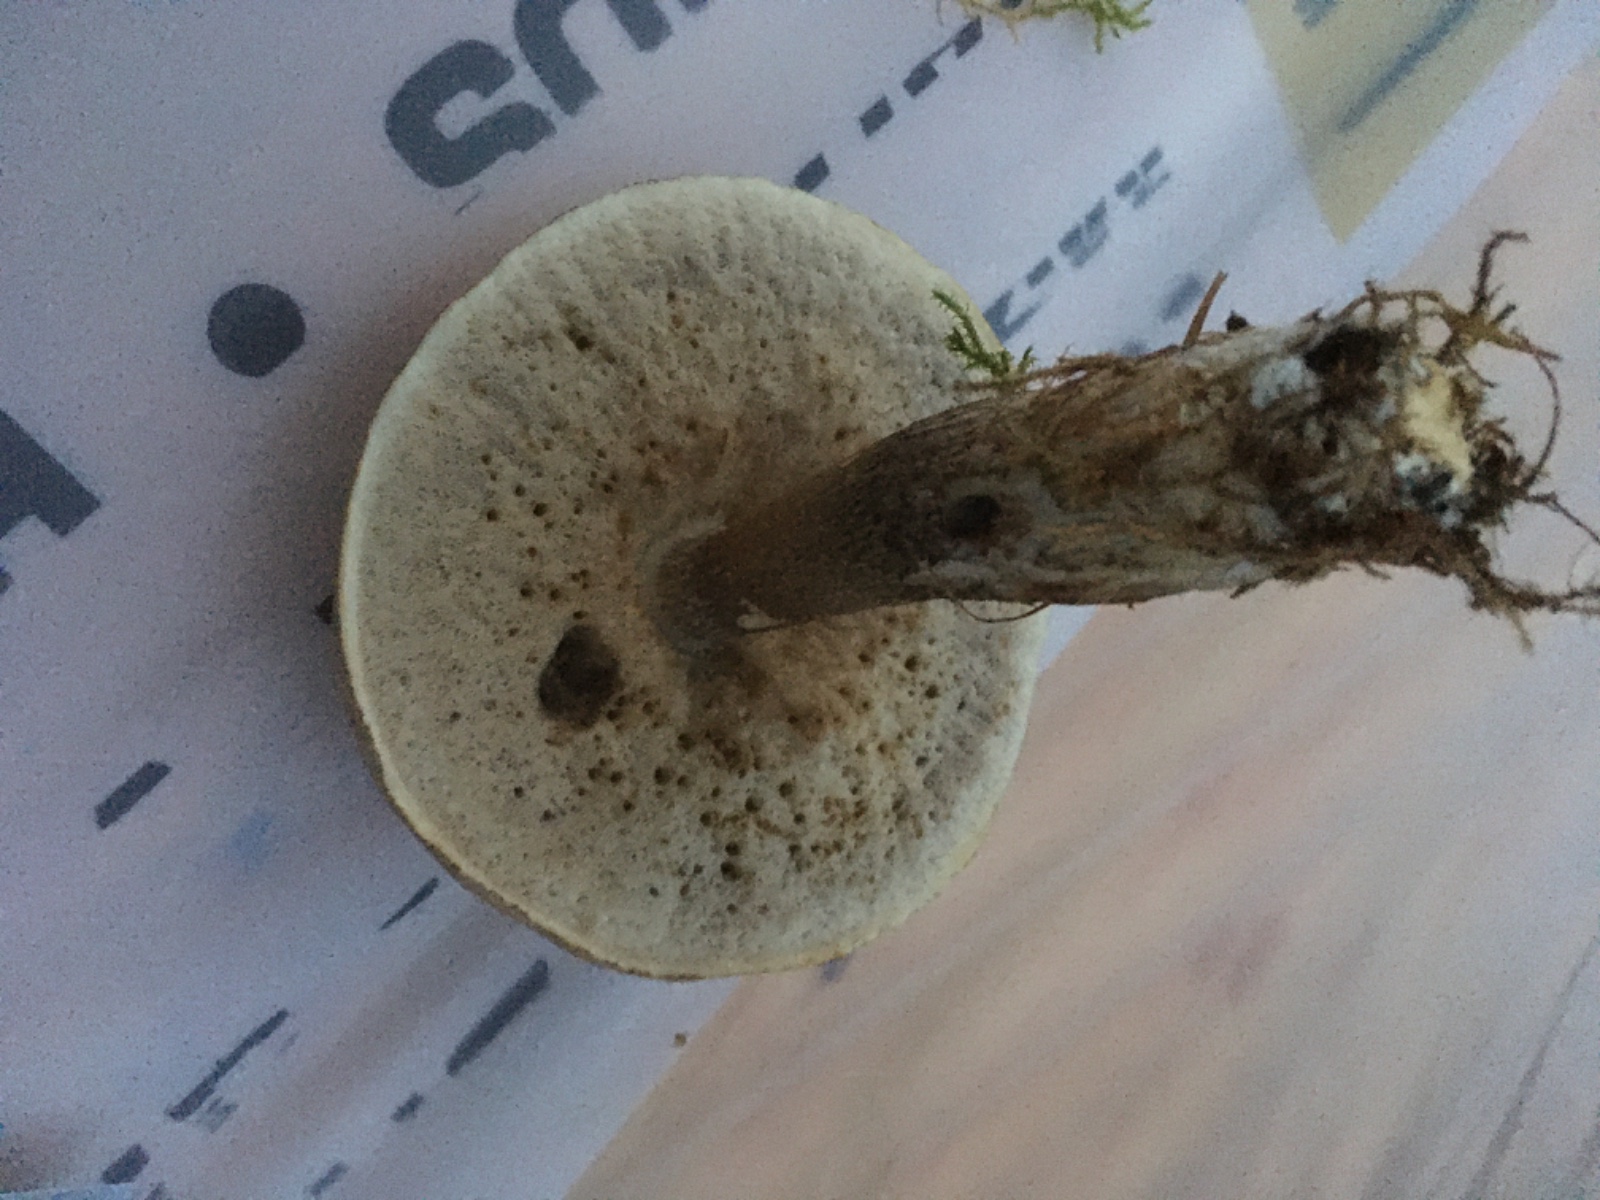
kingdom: Fungi
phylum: Basidiomycota
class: Agaricomycetes
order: Boletales
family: Boletaceae
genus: Leccinum
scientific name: Leccinum scabrum
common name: brun skælrørhat
